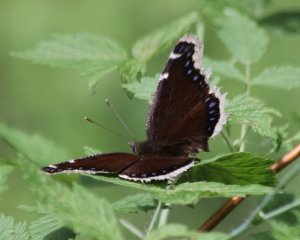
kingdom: Animalia
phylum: Arthropoda
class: Insecta
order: Lepidoptera
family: Nymphalidae
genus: Nymphalis
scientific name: Nymphalis antiopa
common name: Mourning Cloak
